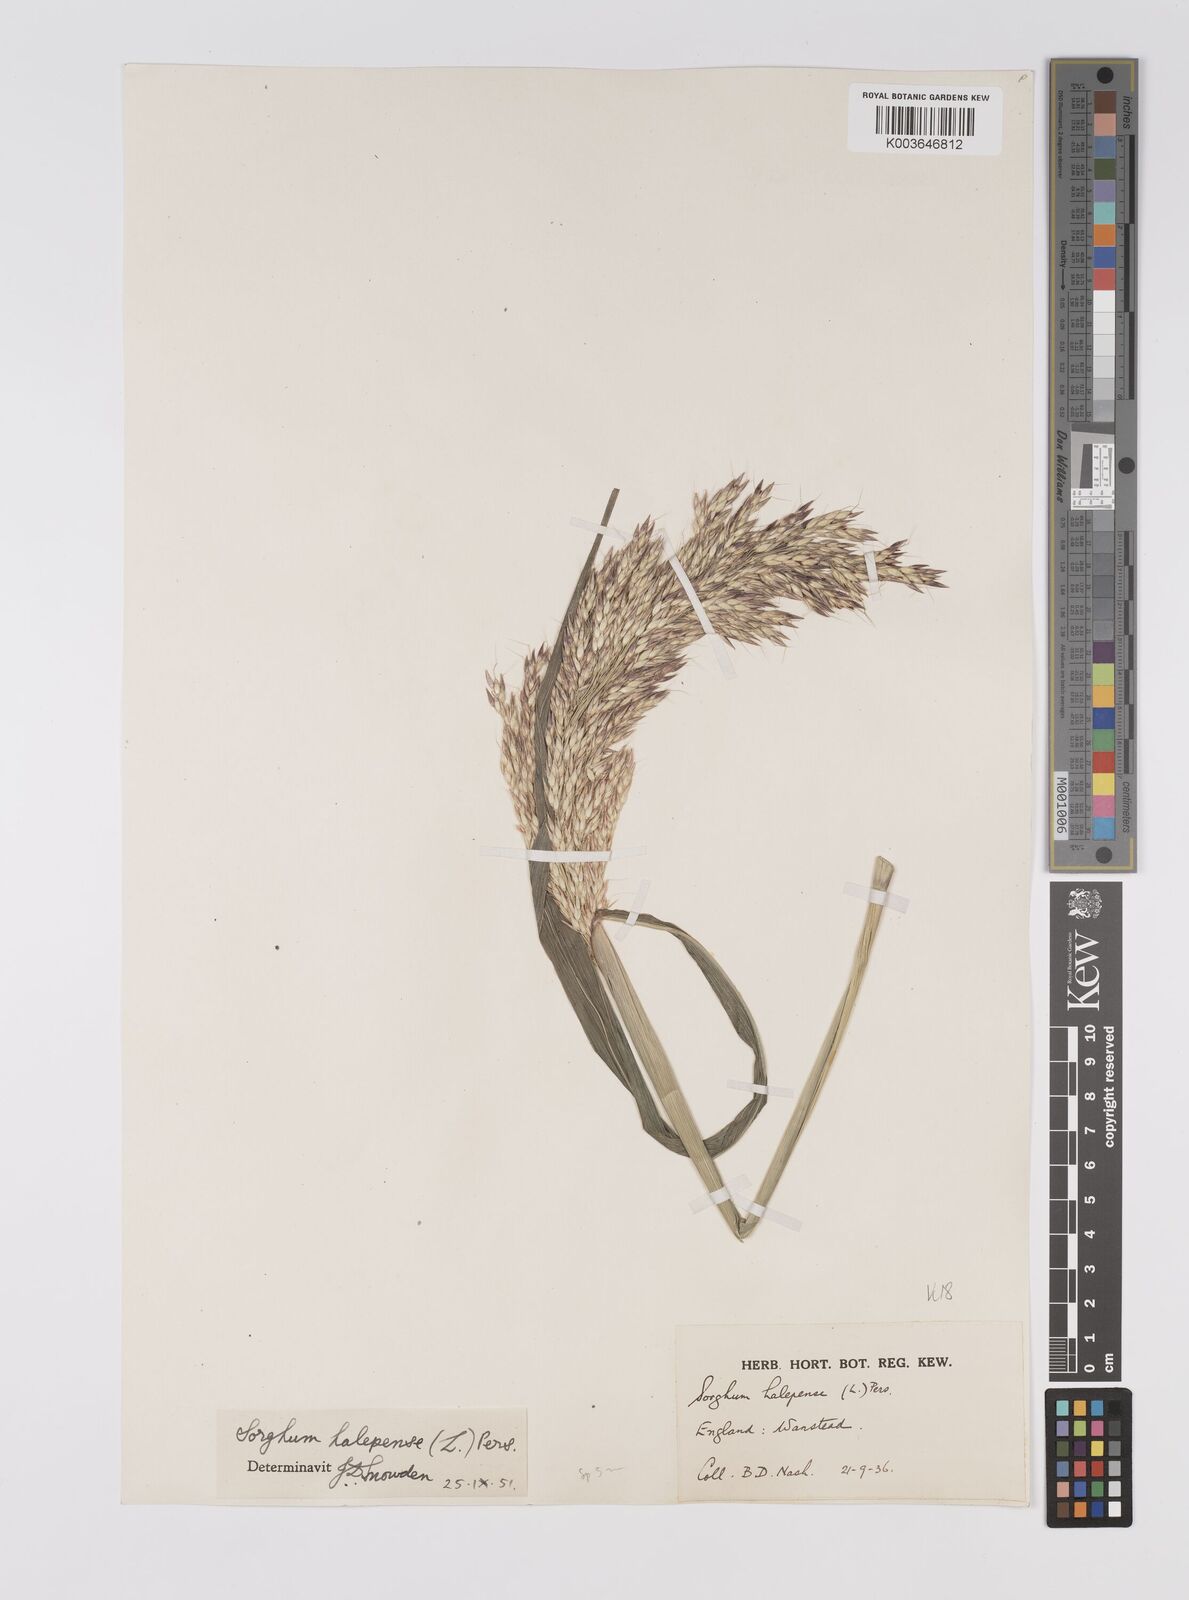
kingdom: Plantae
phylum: Tracheophyta
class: Liliopsida
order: Poales
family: Poaceae
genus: Sorghum
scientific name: Sorghum halepense
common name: Johnson-grass
